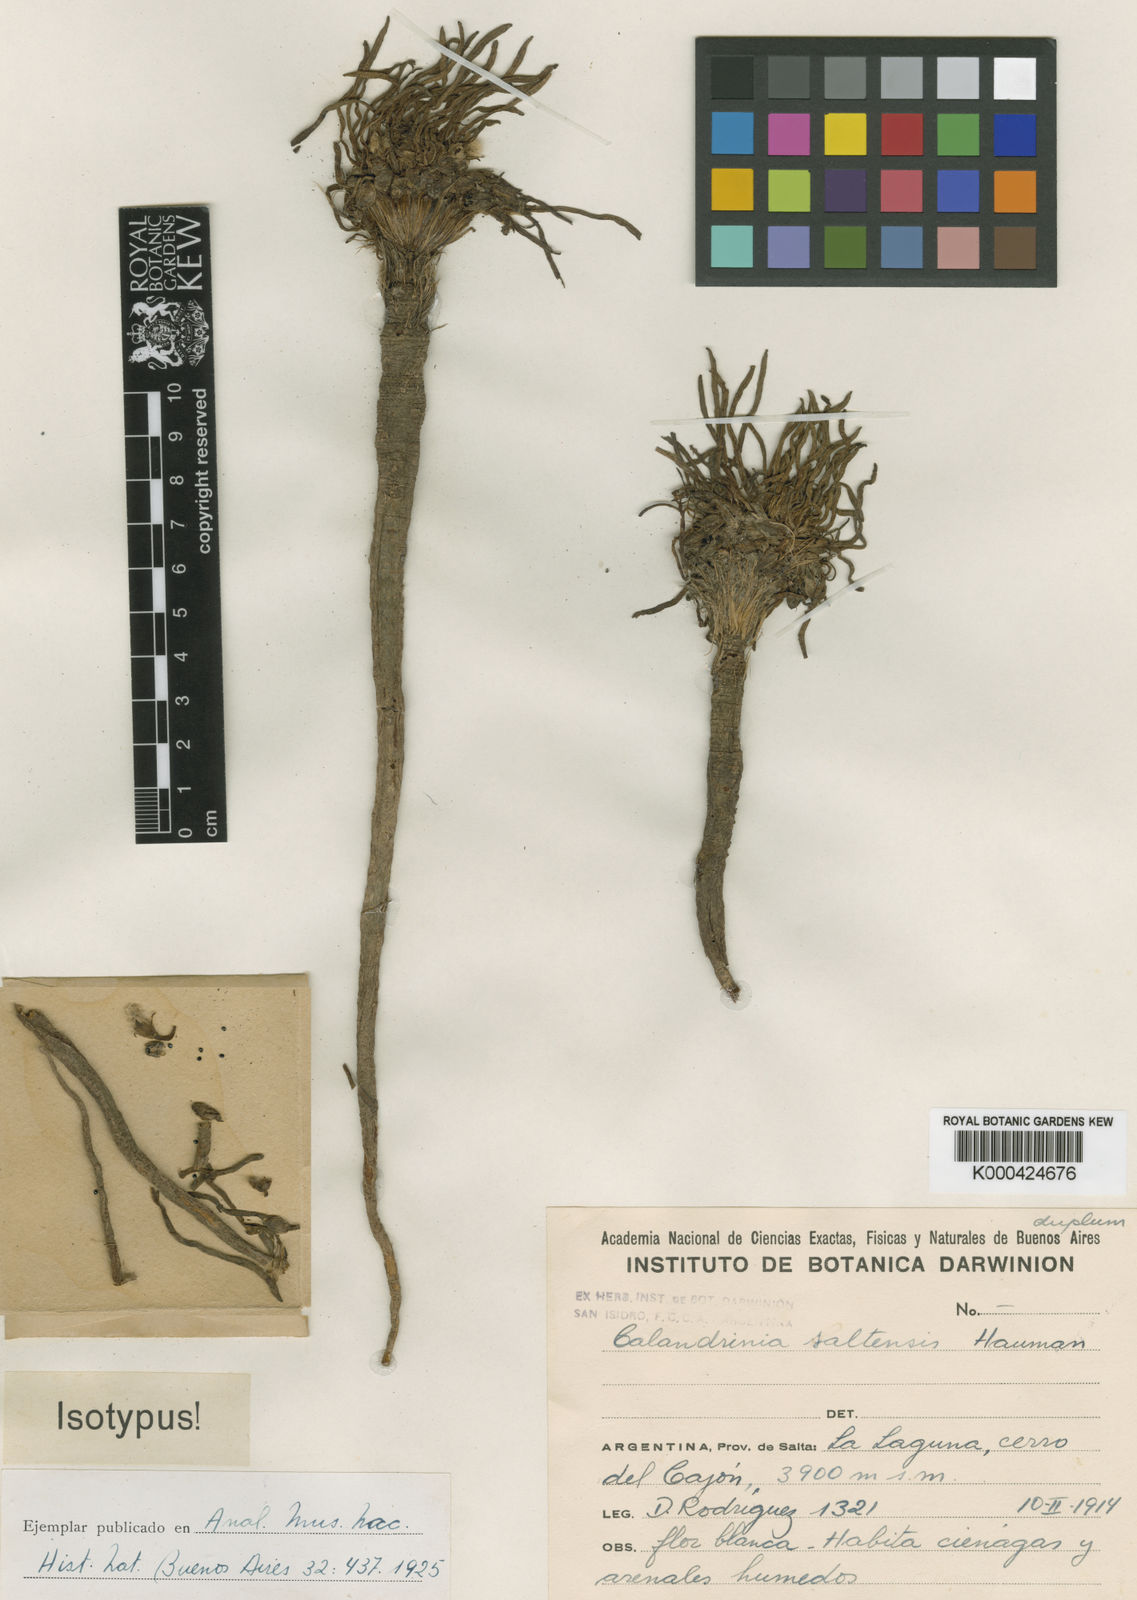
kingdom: Plantae
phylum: Tracheophyta
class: Magnoliopsida
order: Caryophyllales
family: Montiaceae
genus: Calandrinia
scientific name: Calandrinia acaulis
